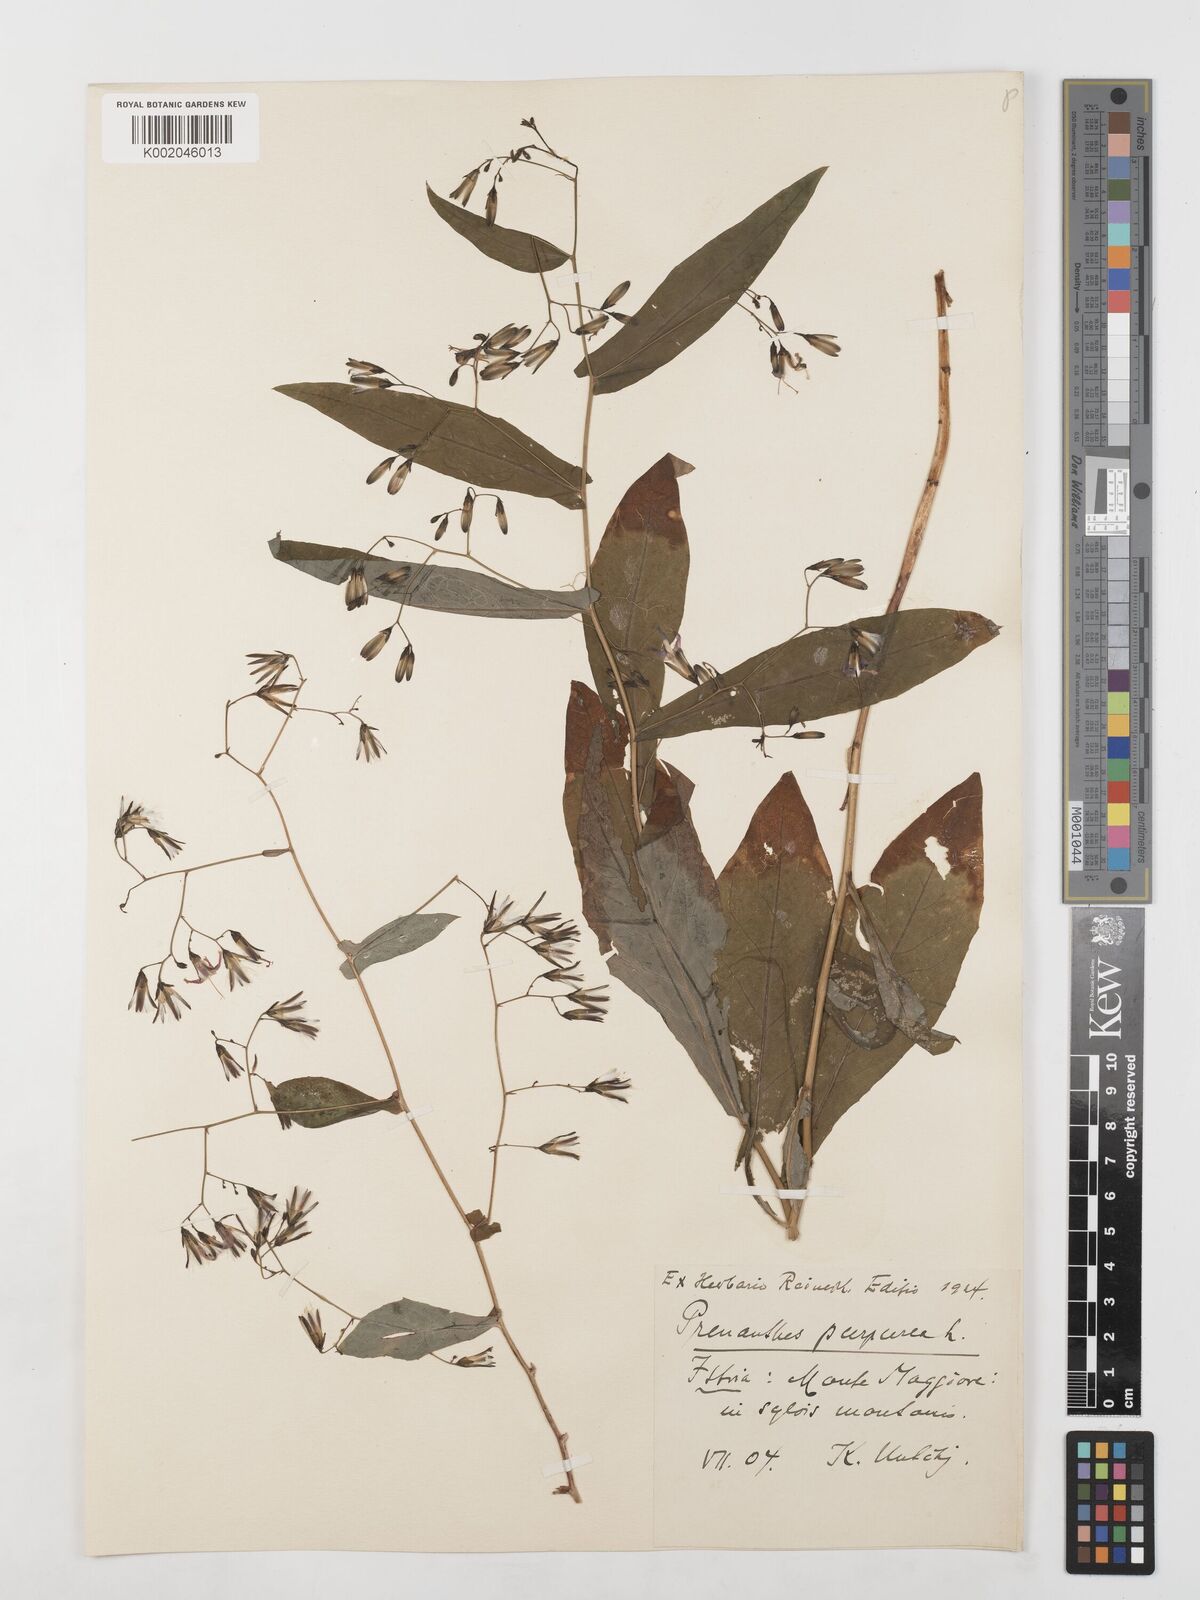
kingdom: Plantae
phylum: Tracheophyta
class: Magnoliopsida
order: Asterales
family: Asteraceae
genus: Prenanthes
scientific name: Prenanthes purpurea
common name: Purple lettuce
